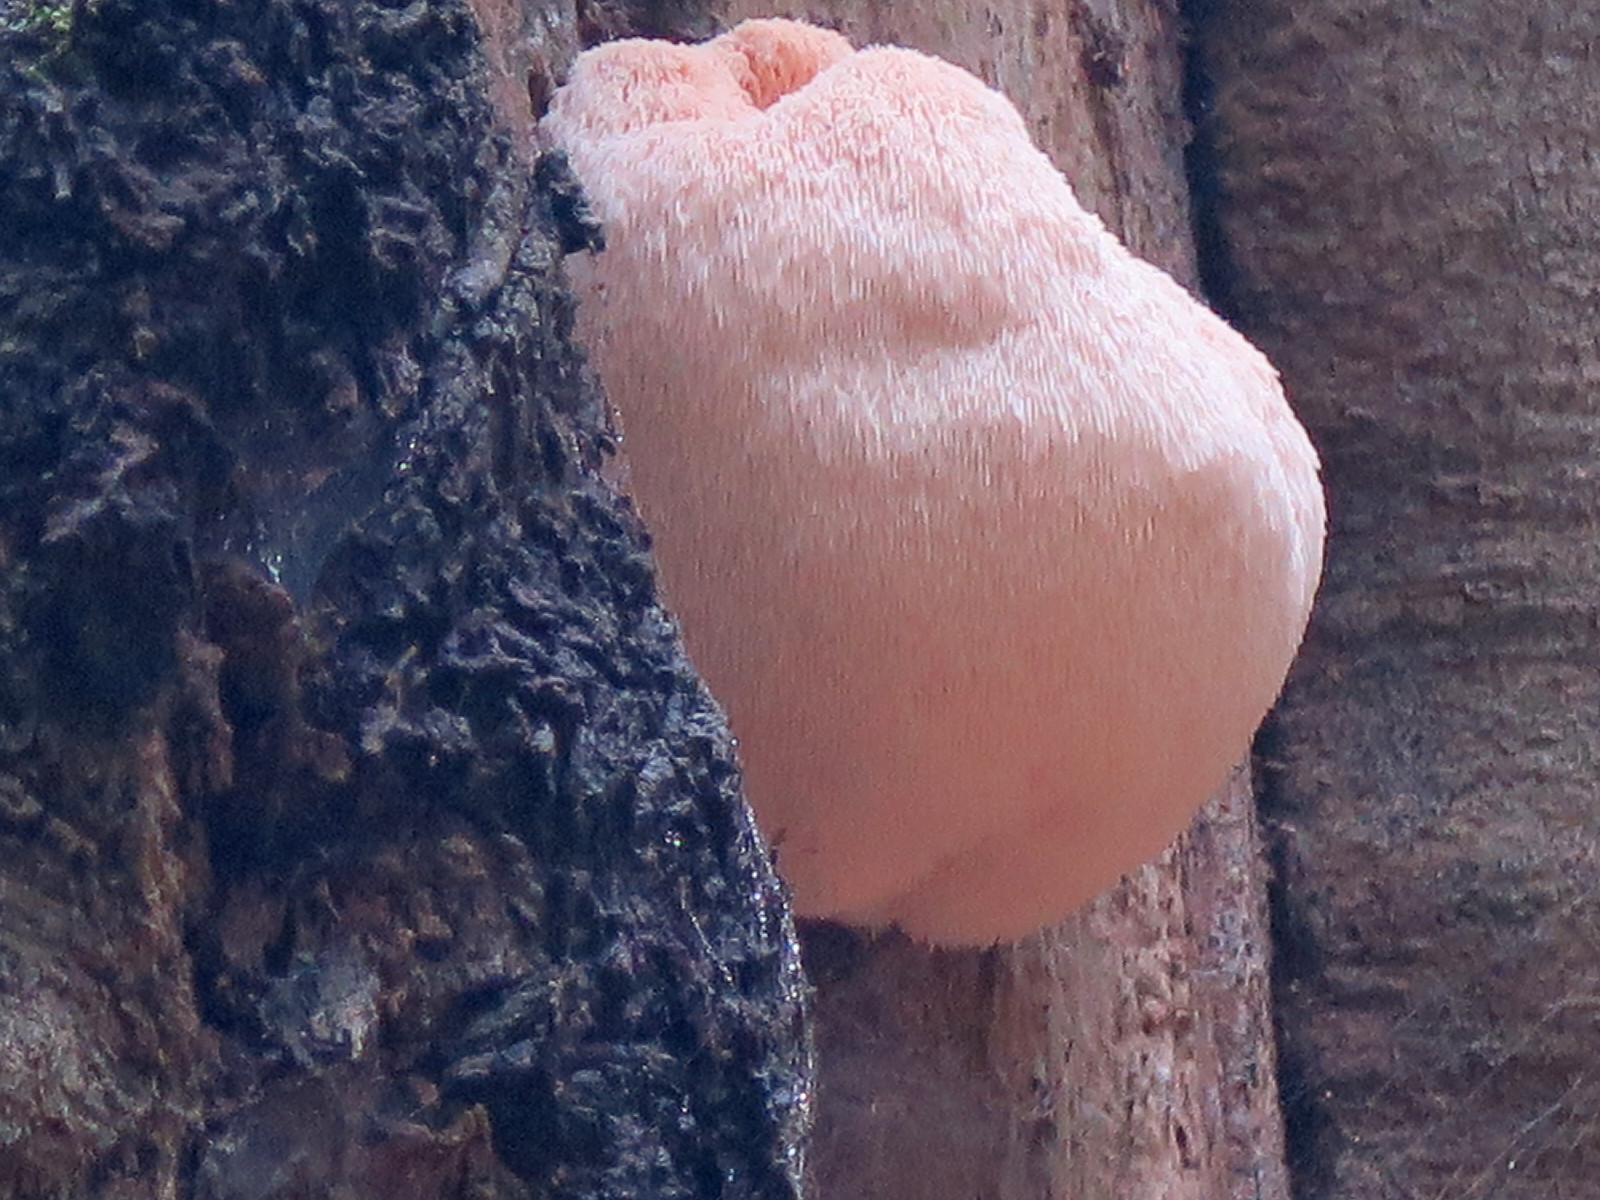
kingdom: Fungi
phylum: Basidiomycota
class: Agaricomycetes
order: Russulales
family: Hericiaceae
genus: Hericium
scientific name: Hericium erinaceus
